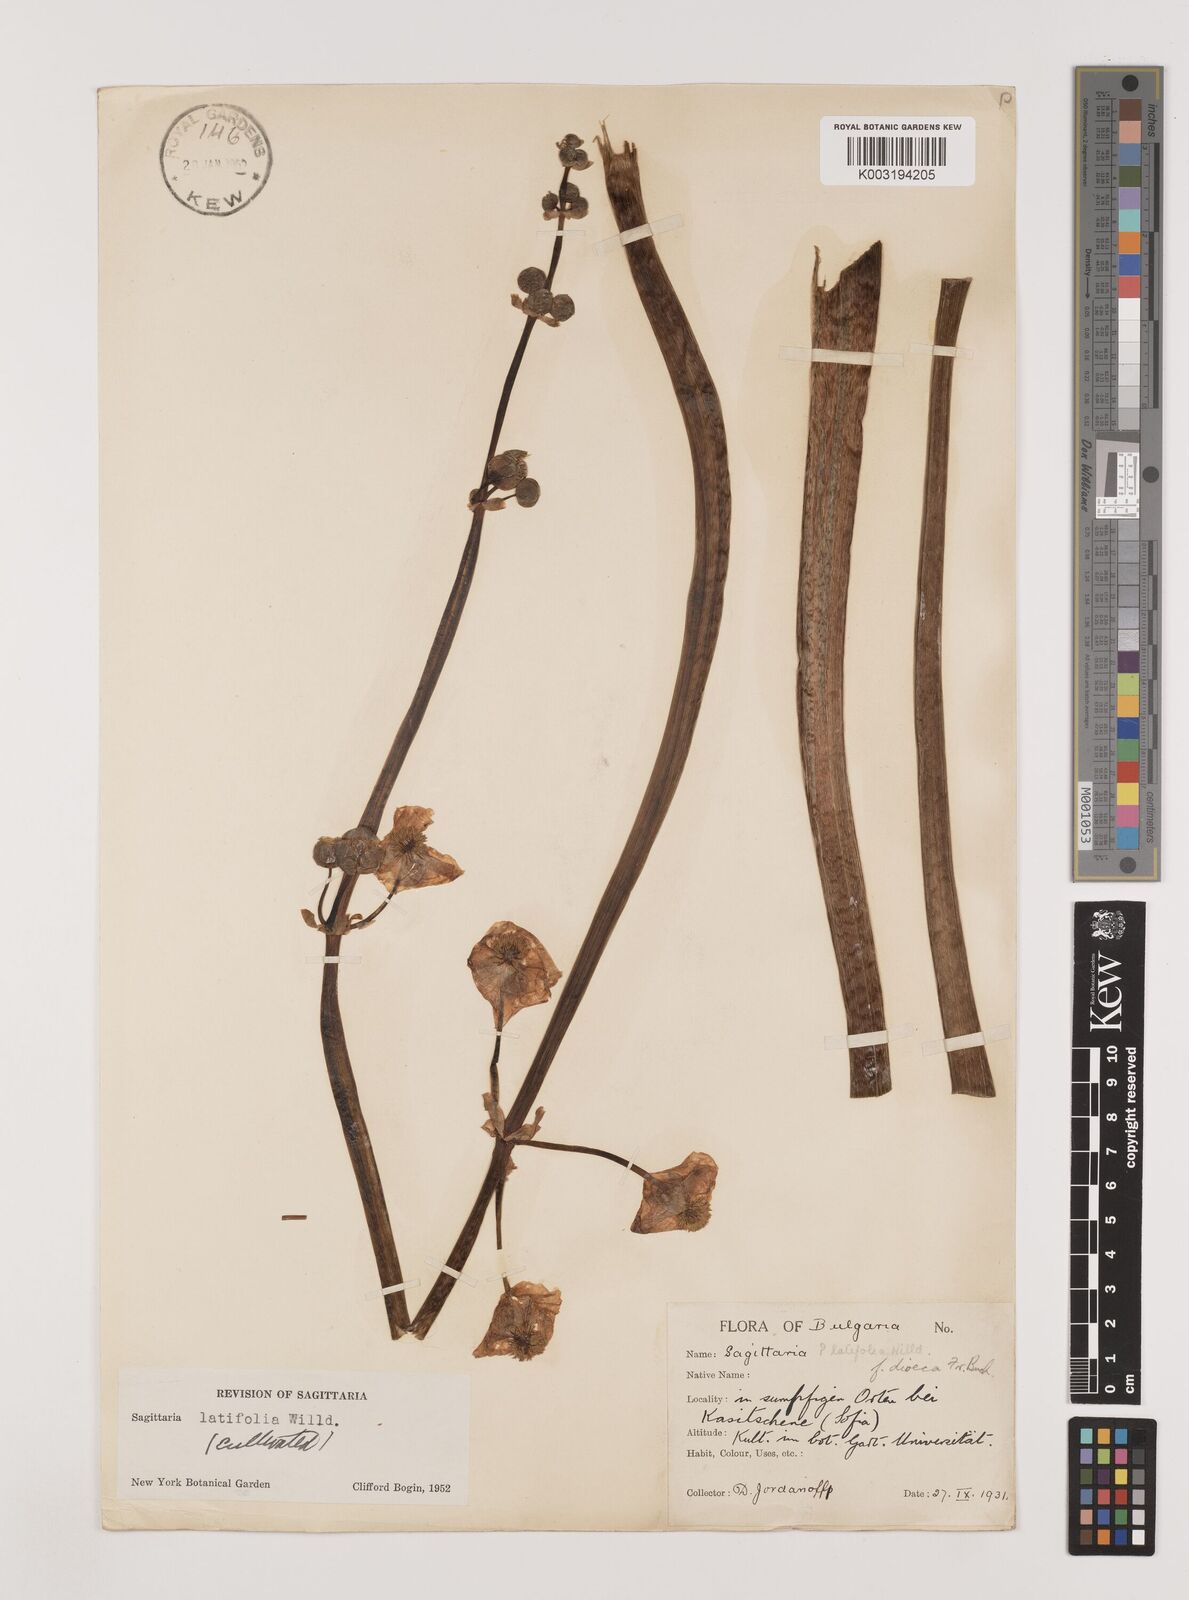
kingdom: Plantae
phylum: Tracheophyta
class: Liliopsida
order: Alismatales
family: Alismataceae
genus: Sagittaria
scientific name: Sagittaria latifolia
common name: Duck-potato
